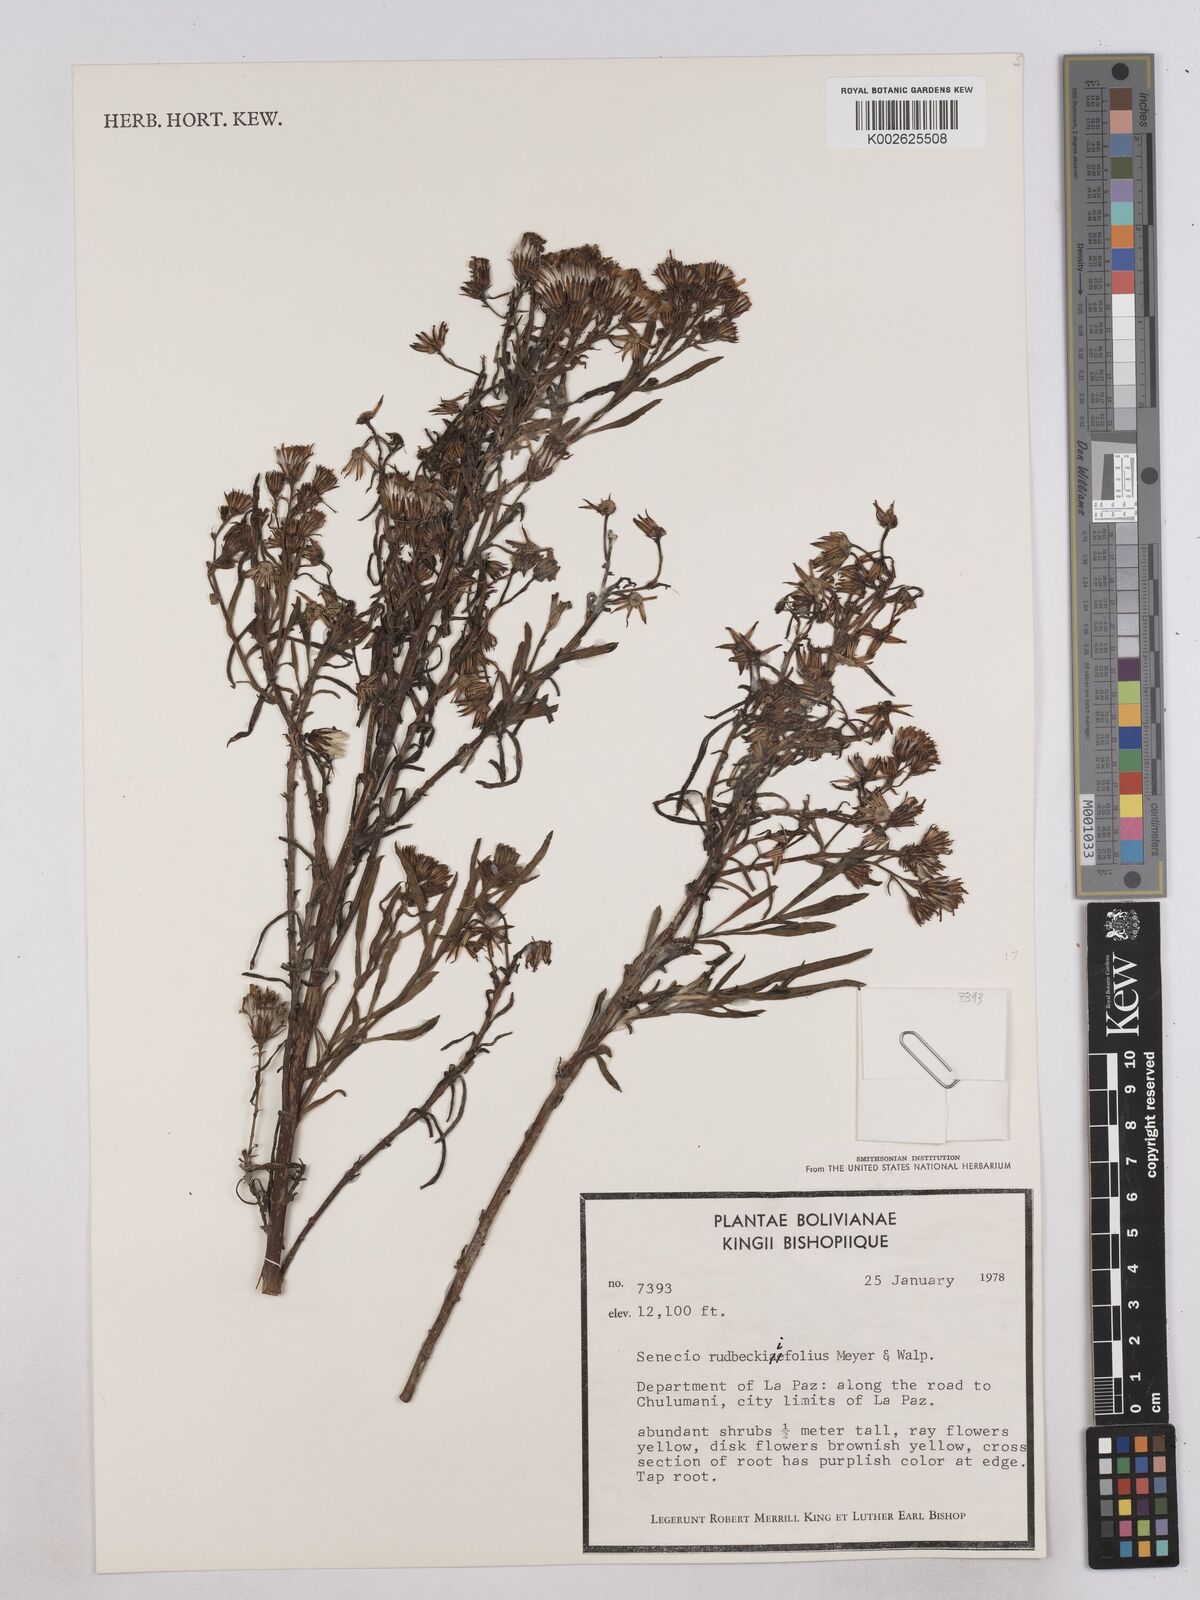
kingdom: Plantae
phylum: Tracheophyta
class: Magnoliopsida
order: Asterales
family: Asteraceae
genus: Senecio
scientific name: Senecio rudbeckiifolius
